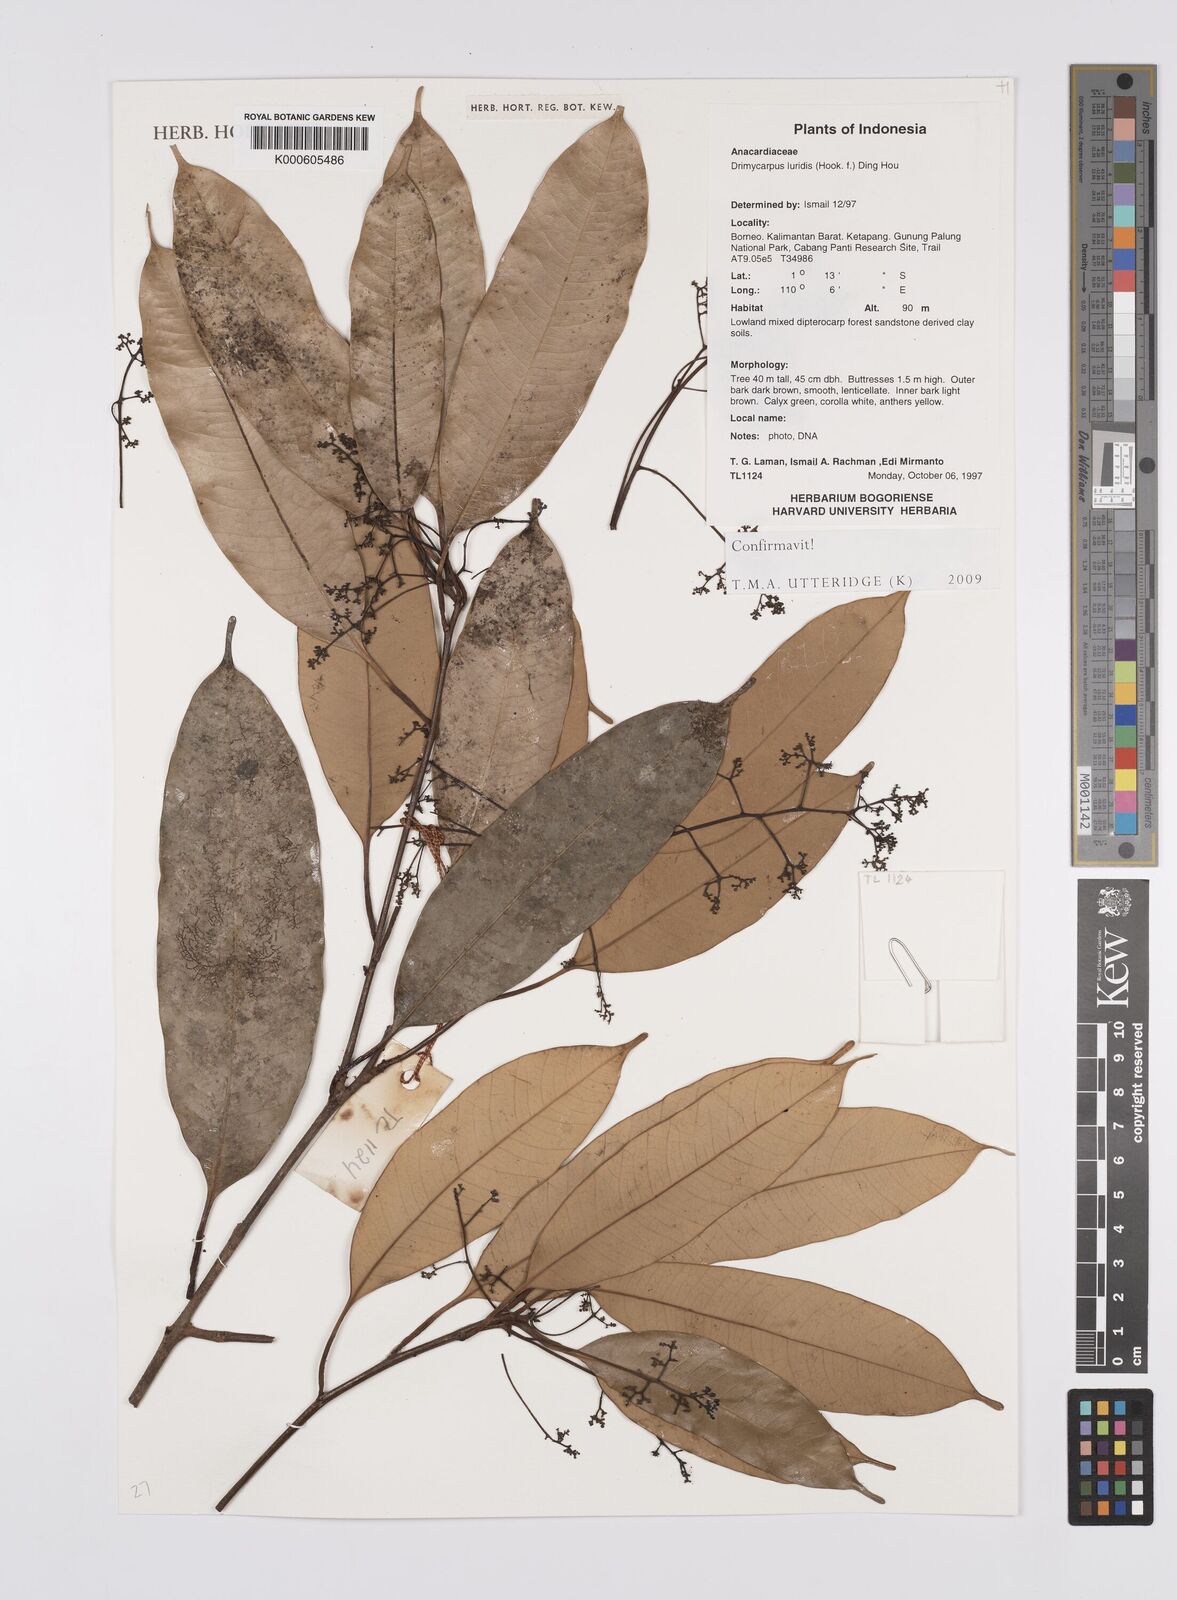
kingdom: Plantae
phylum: Tracheophyta
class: Magnoliopsida
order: Sapindales
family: Anacardiaceae
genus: Drimycarpus
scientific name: Drimycarpus luridus
